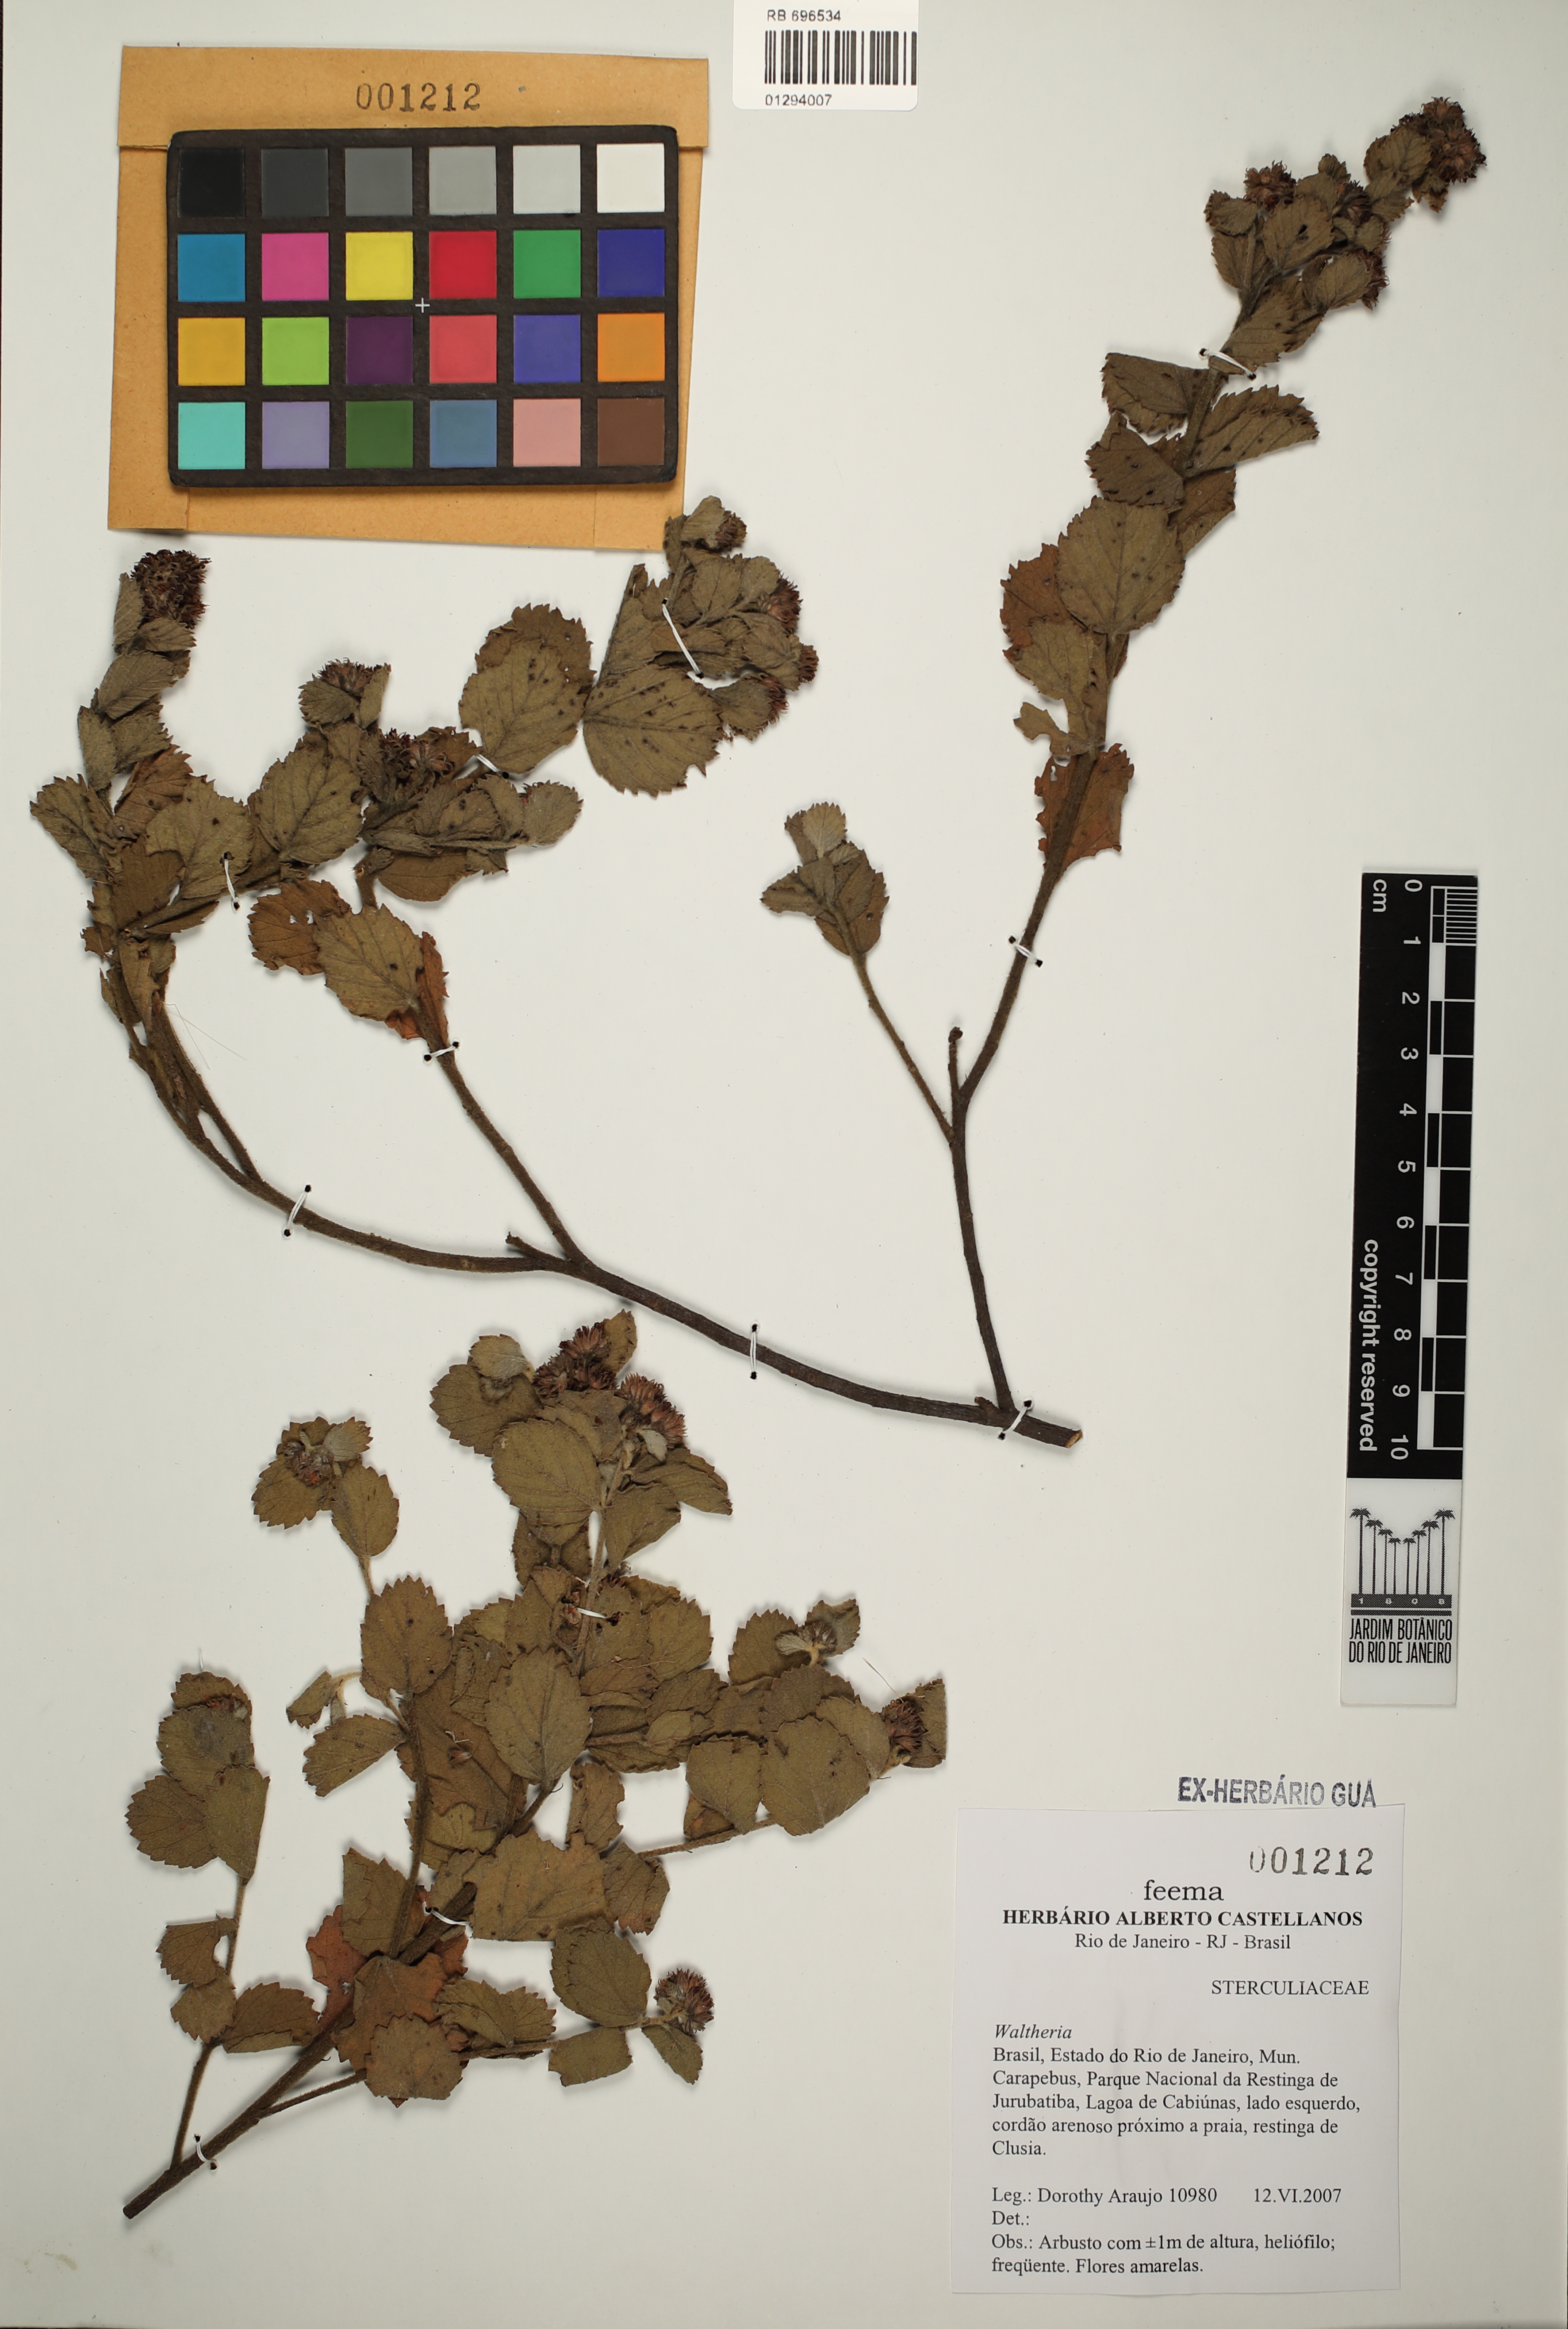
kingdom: Plantae
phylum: Tracheophyta
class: Magnoliopsida
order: Malvales
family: Malvaceae
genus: Waltheria
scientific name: Waltheria
